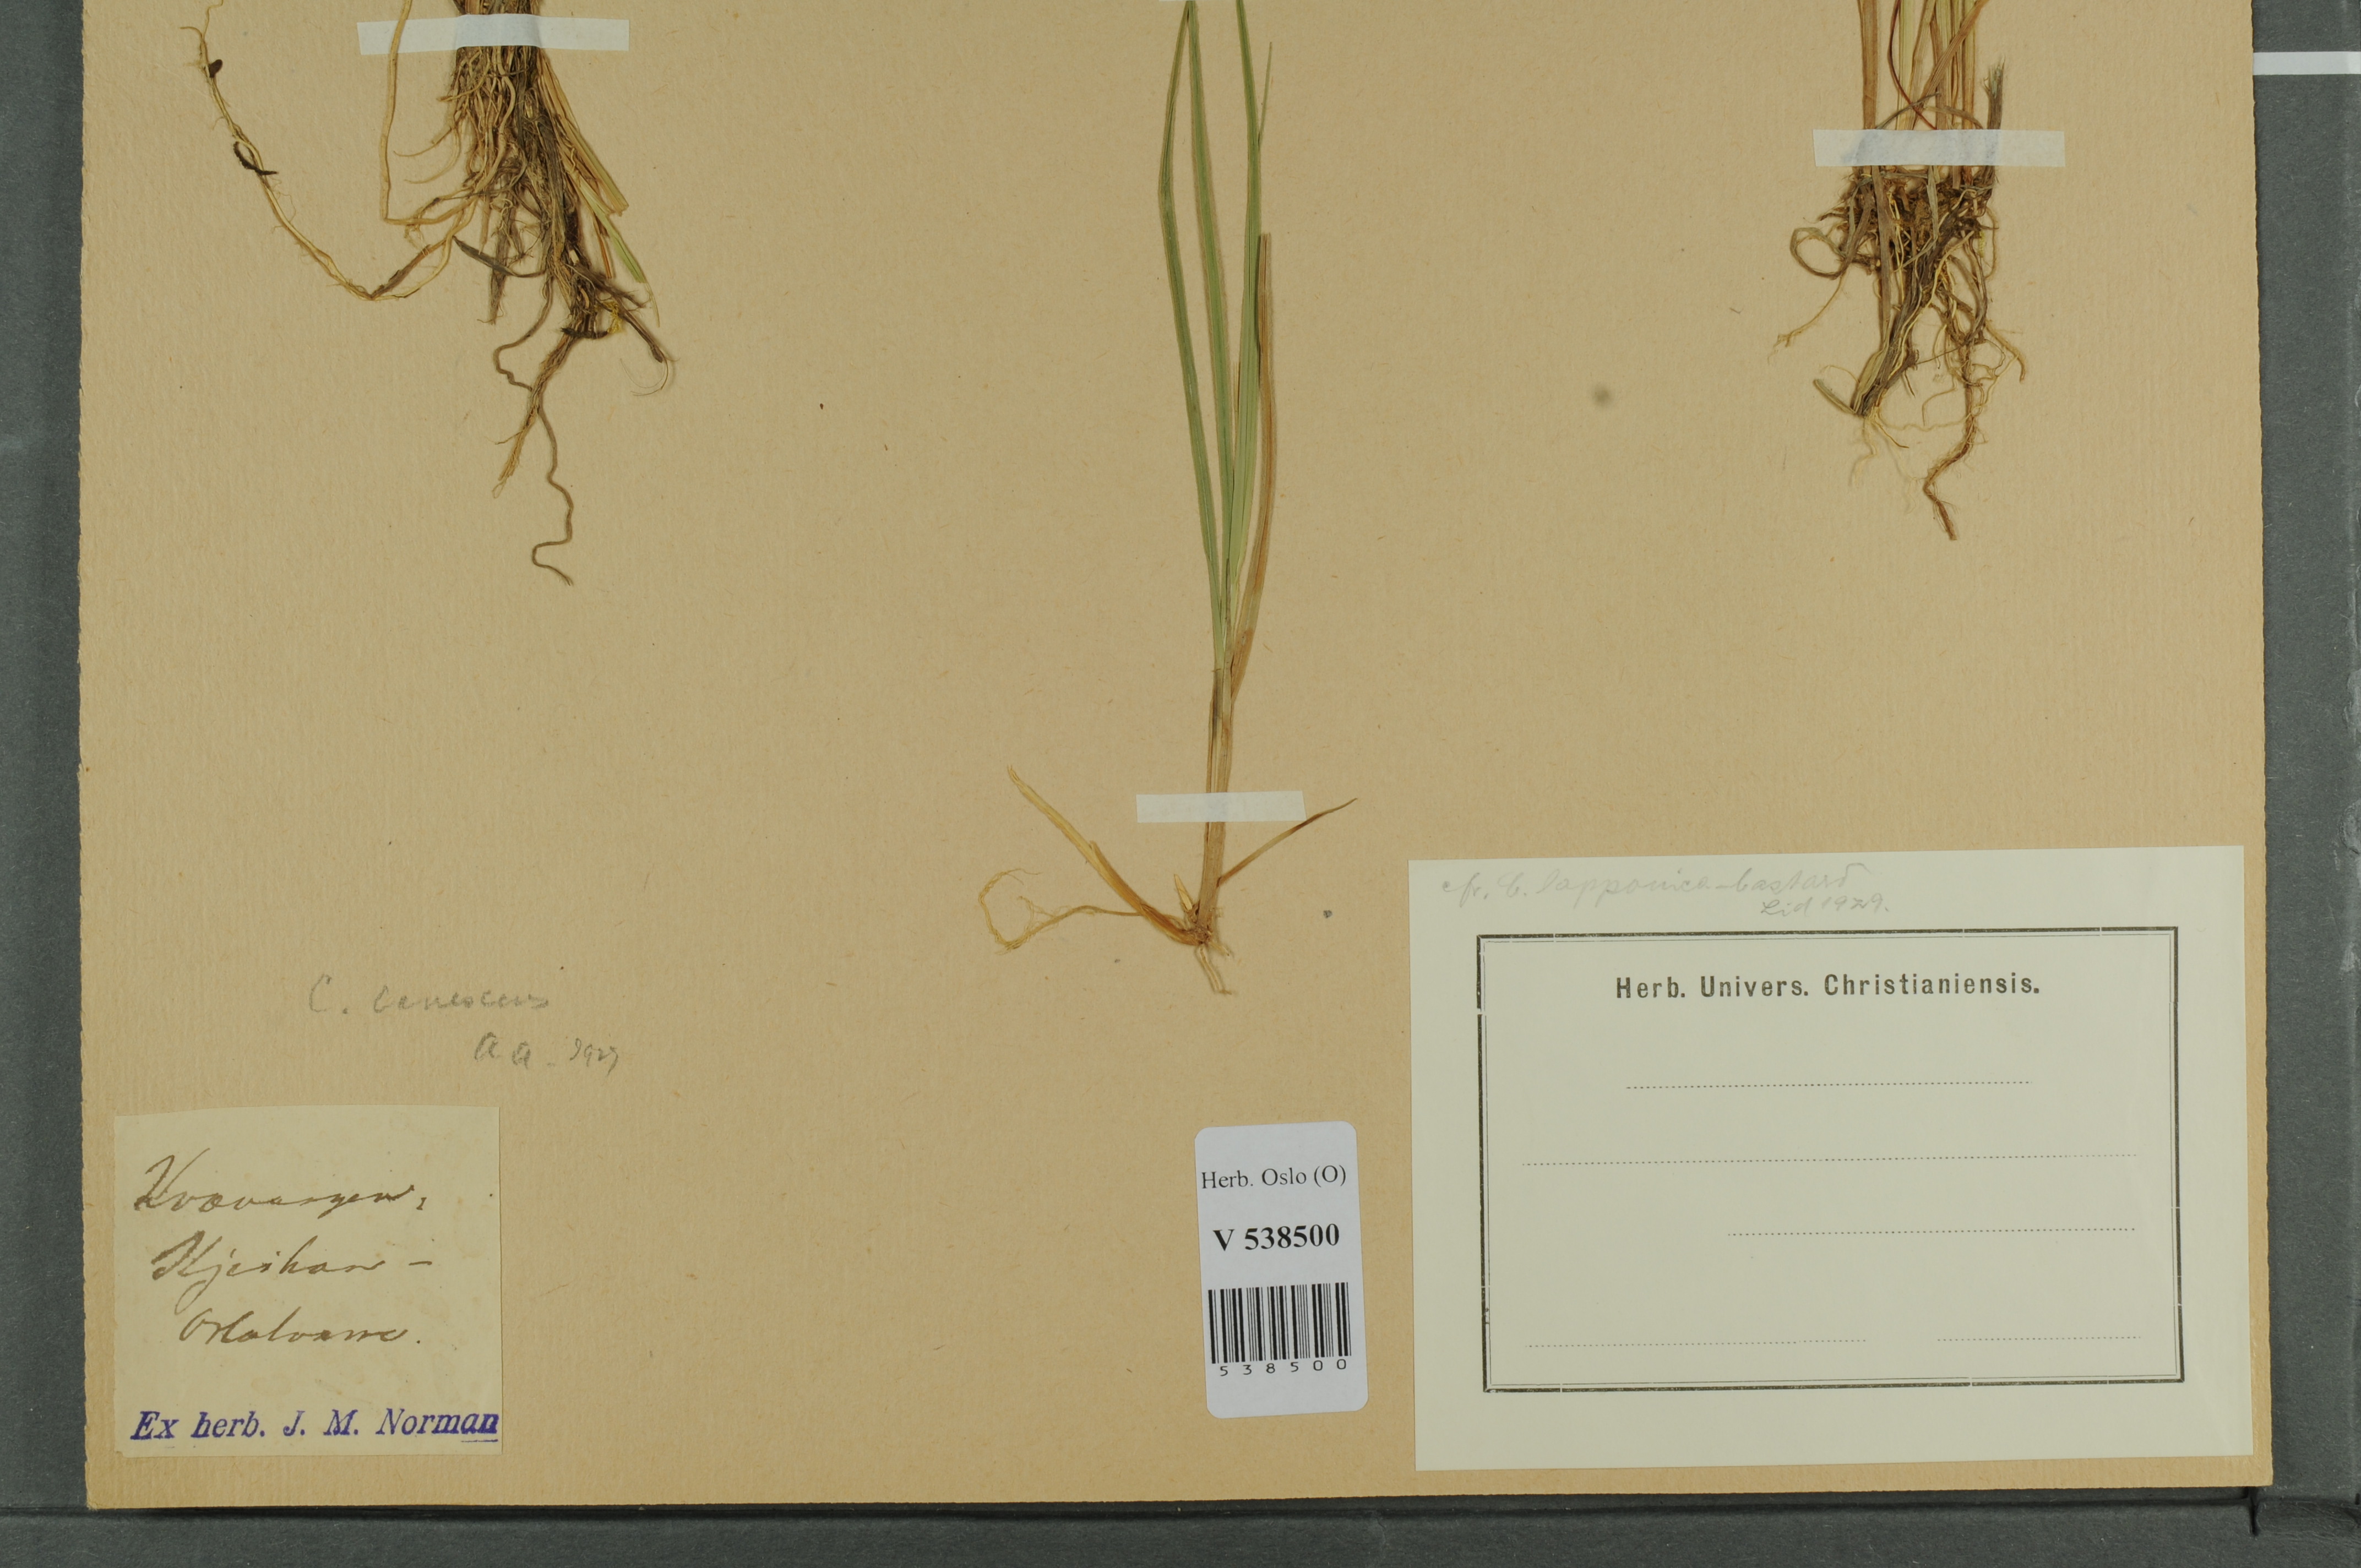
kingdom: Plantae
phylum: Tracheophyta
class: Liliopsida
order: Poales
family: Cyperaceae
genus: Carex
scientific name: Carex canescens
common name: White sedge
